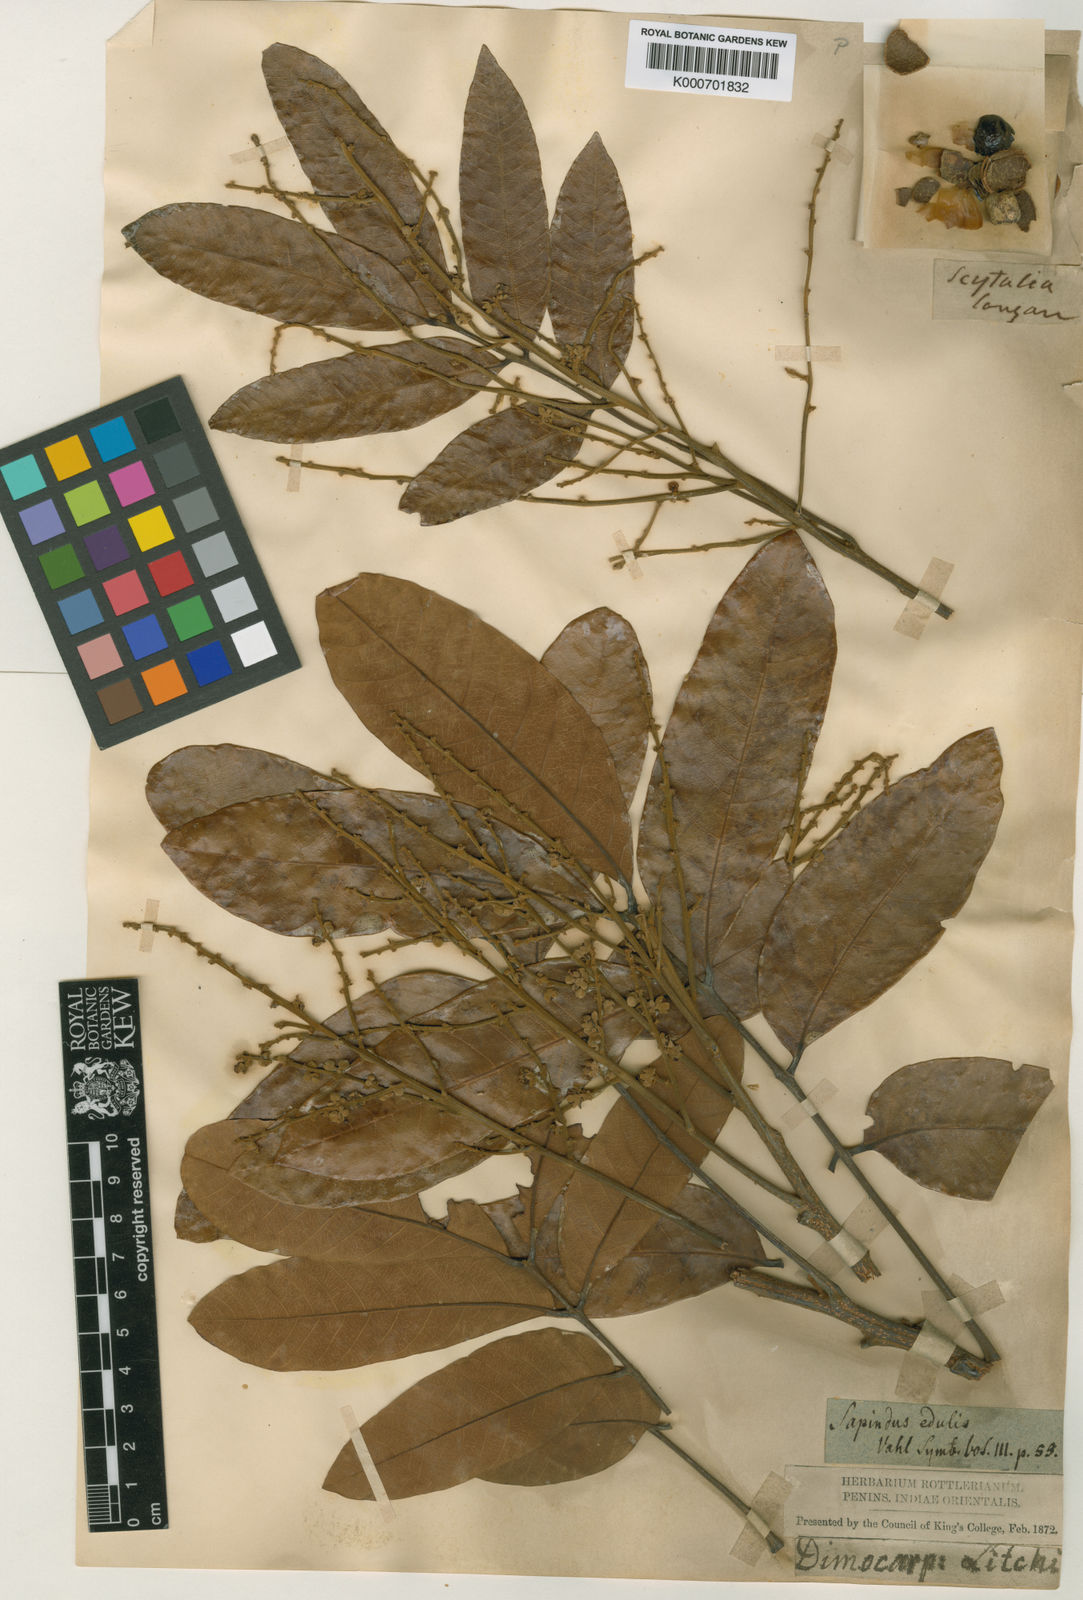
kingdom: Plantae
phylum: Tracheophyta
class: Magnoliopsida
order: Sapindales
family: Sapindaceae
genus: Dimocarpus
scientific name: Dimocarpus longan
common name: Longan
